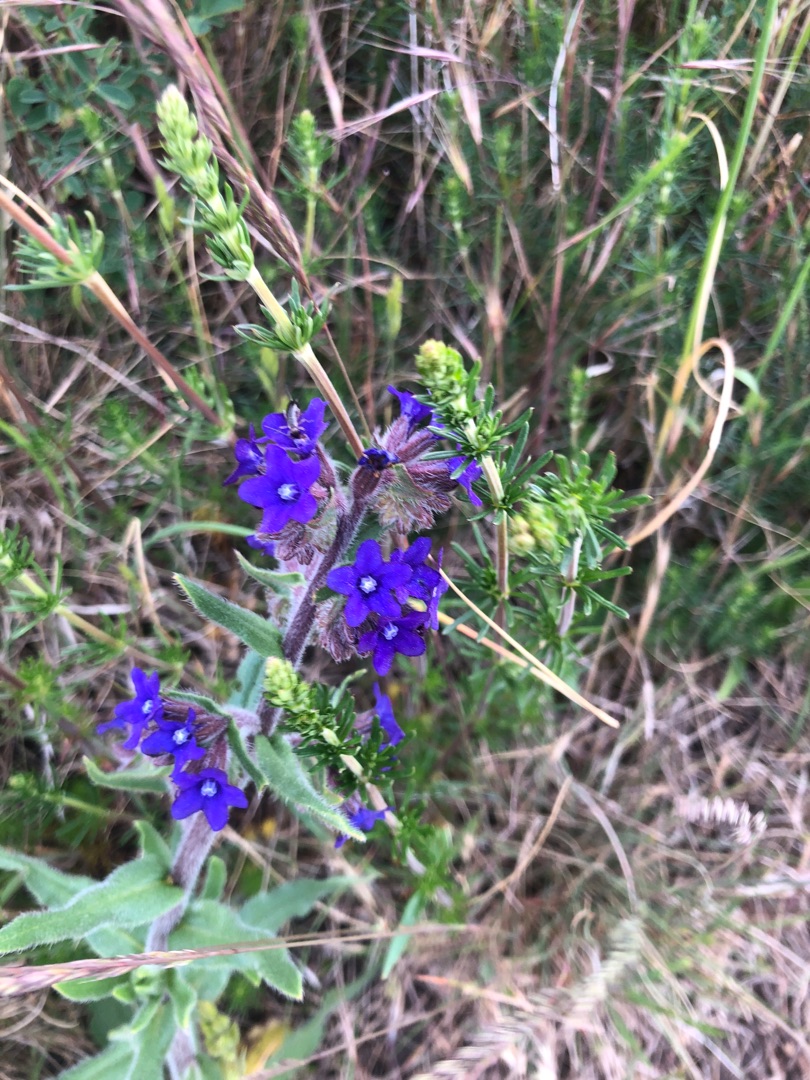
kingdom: Plantae
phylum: Tracheophyta
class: Magnoliopsida
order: Boraginales
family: Boraginaceae
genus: Anchusa
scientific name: Anchusa officinalis
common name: Læge-oksetunge
